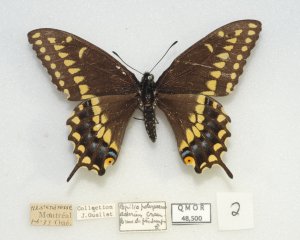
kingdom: Animalia
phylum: Arthropoda
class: Insecta
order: Lepidoptera
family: Papilionidae
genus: Papilio
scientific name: Papilio polyxenes
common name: Black Swallowtail
